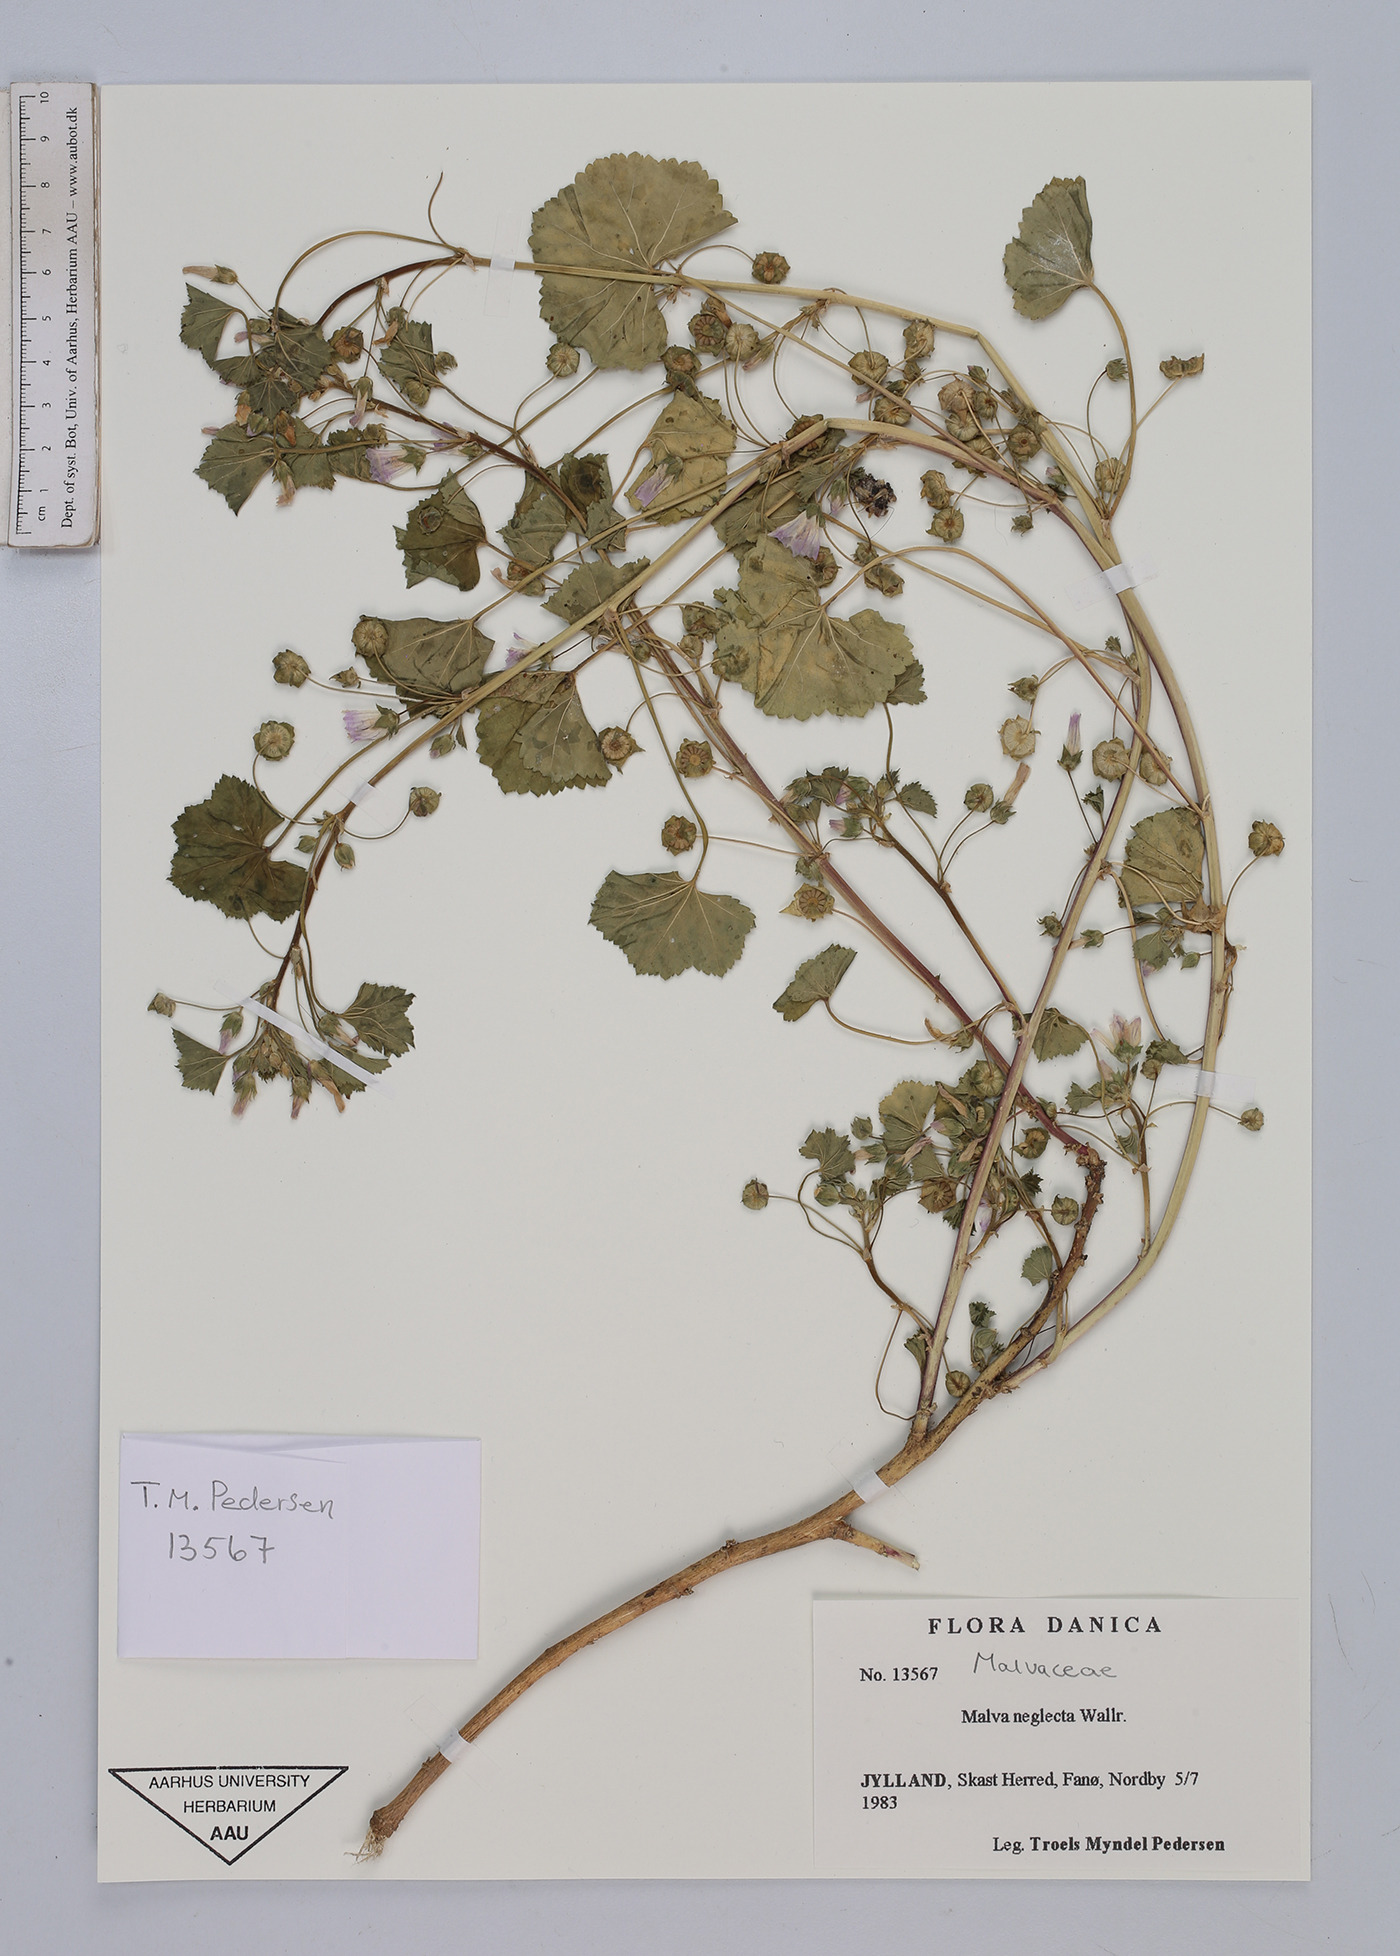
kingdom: Plantae
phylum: Tracheophyta
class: Magnoliopsida
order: Malvales
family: Malvaceae
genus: Malva
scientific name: Malva neglecta
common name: Common mallow
